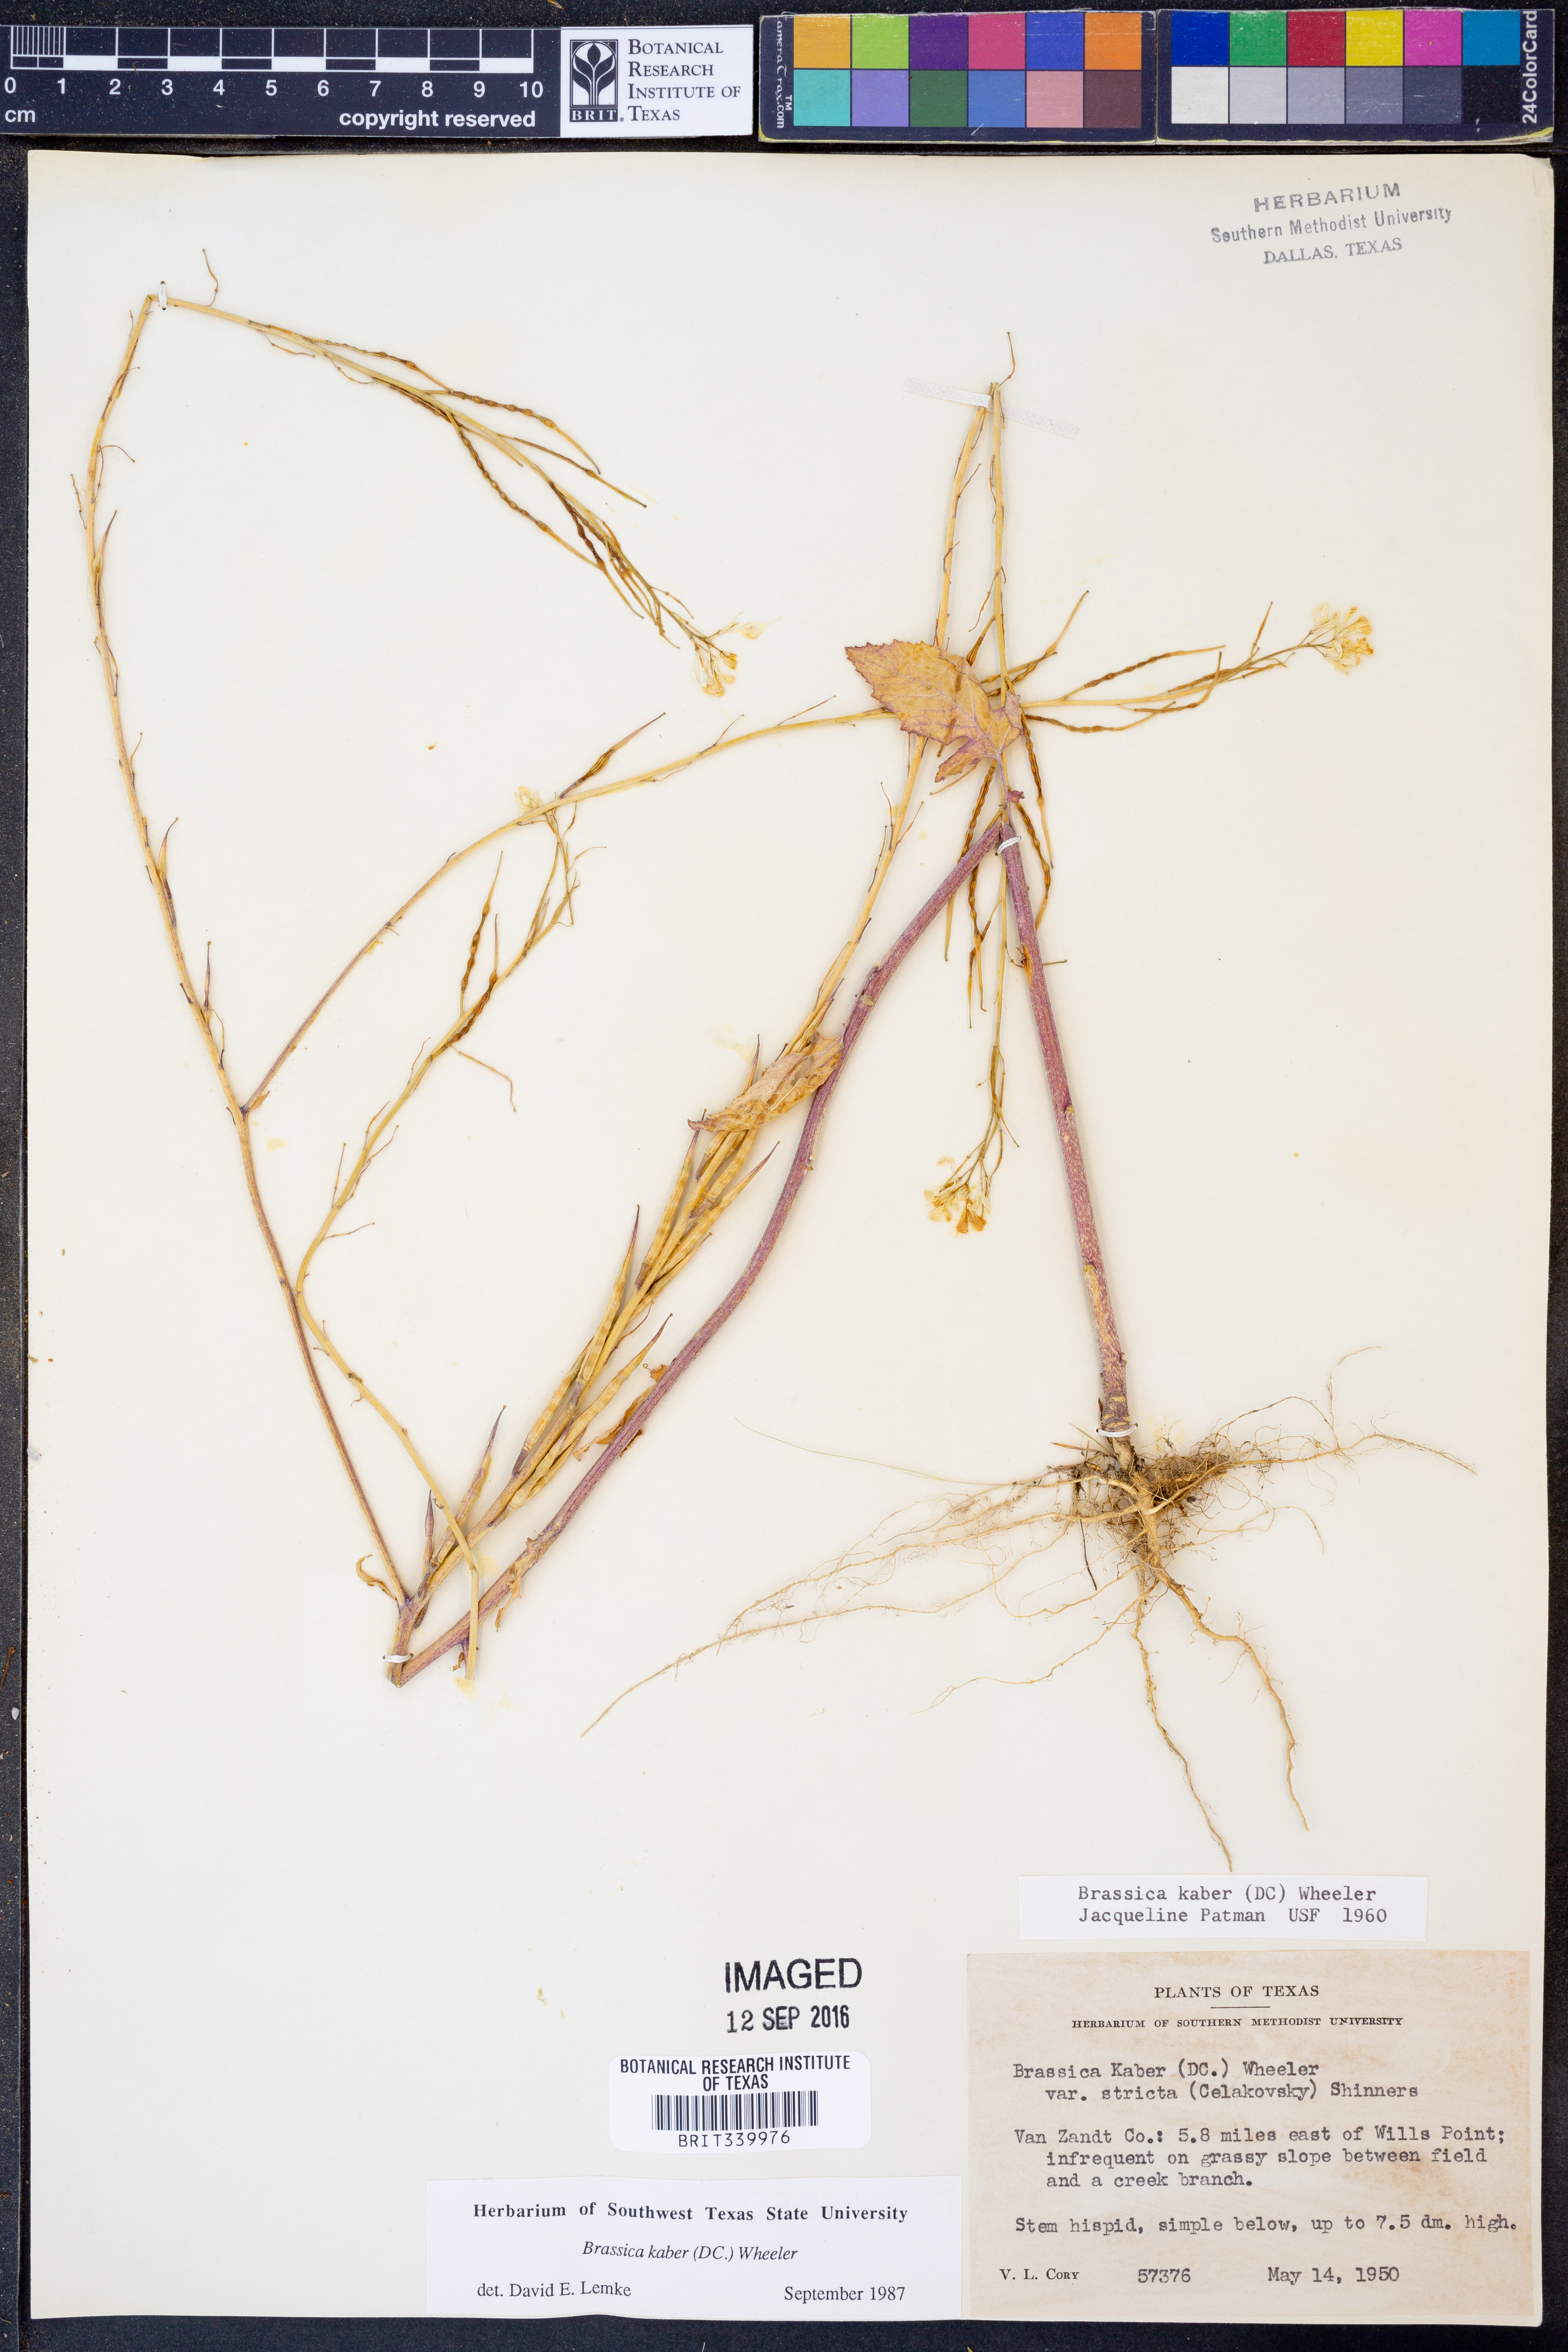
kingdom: Plantae
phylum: Tracheophyta
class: Magnoliopsida
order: Brassicales
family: Brassicaceae
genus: Sinapis
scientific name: Sinapis arvensis
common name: Charlock
